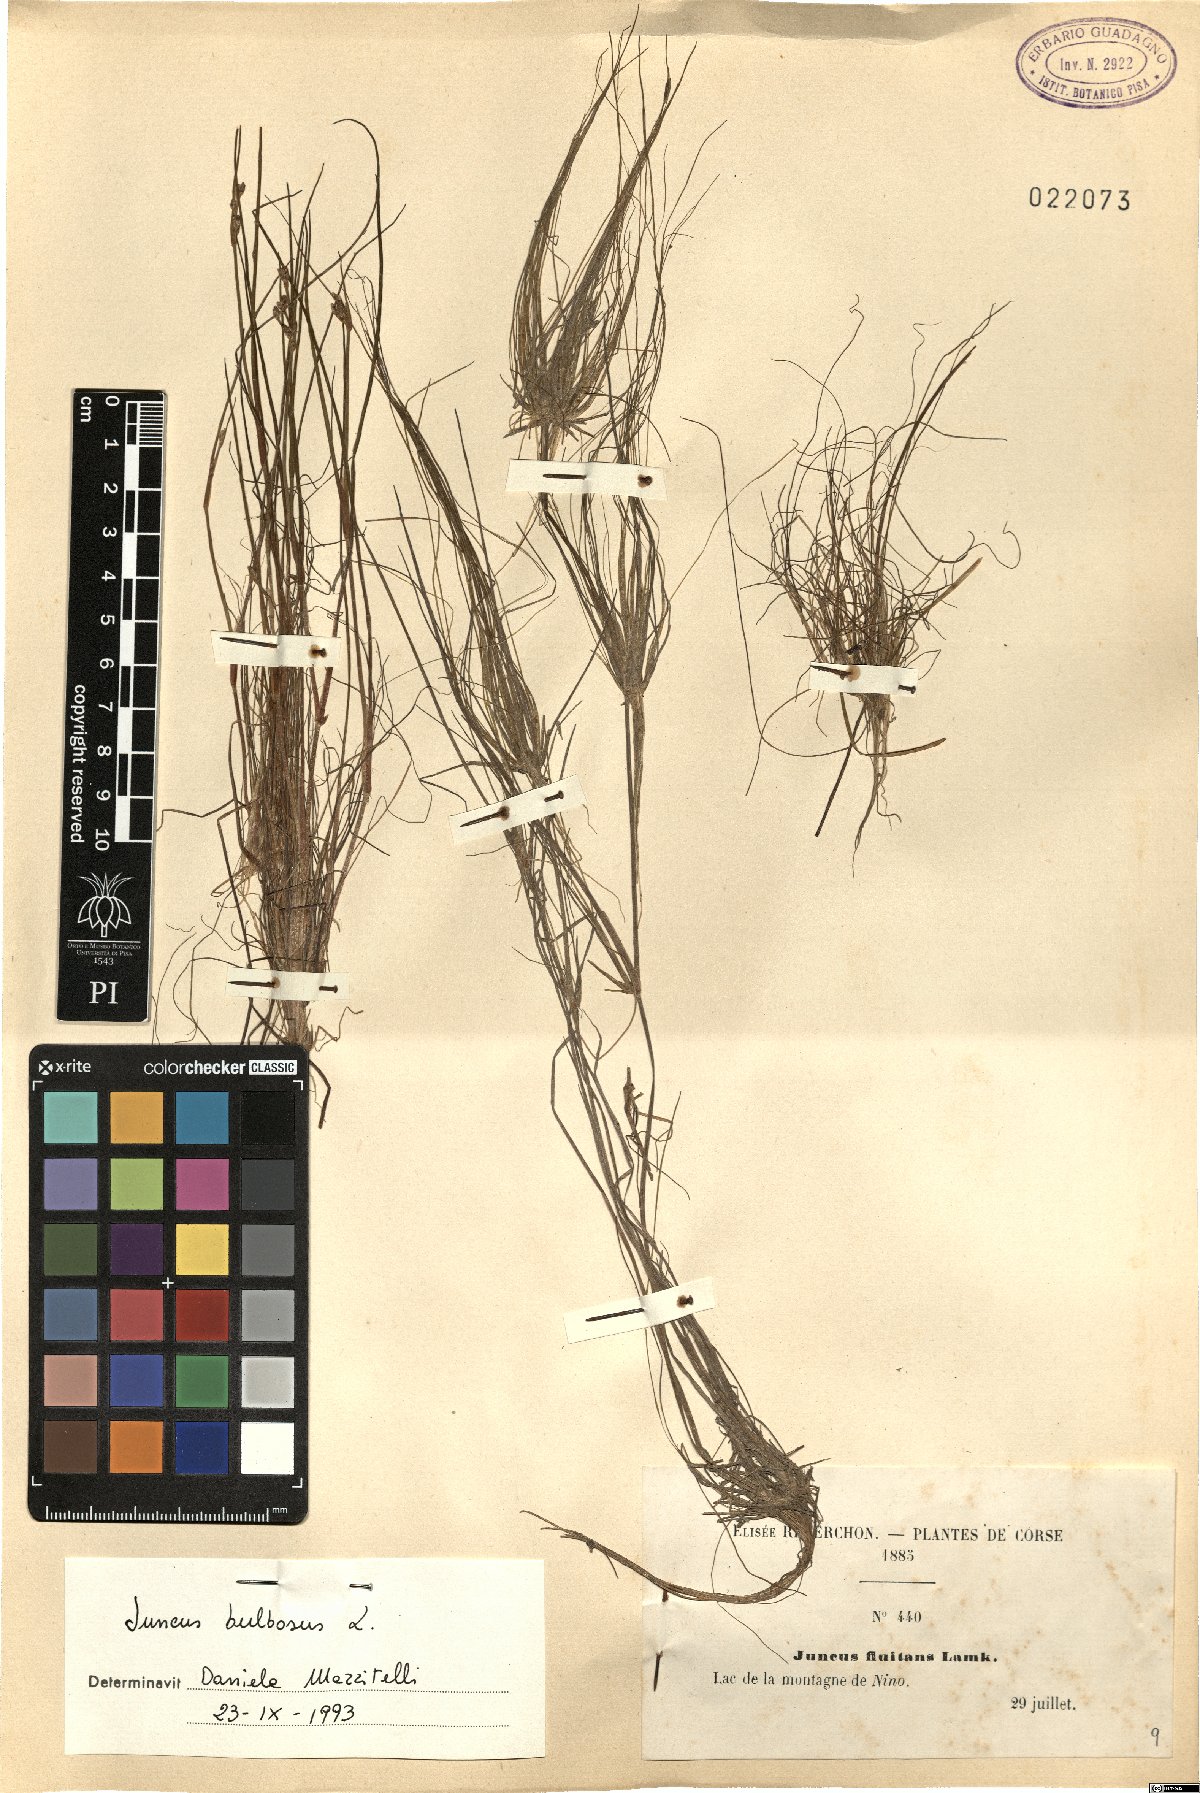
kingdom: Plantae
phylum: Tracheophyta
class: Liliopsida
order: Poales
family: Juncaceae
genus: Juncus
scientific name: Juncus bulbosus
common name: Bulbous rush
